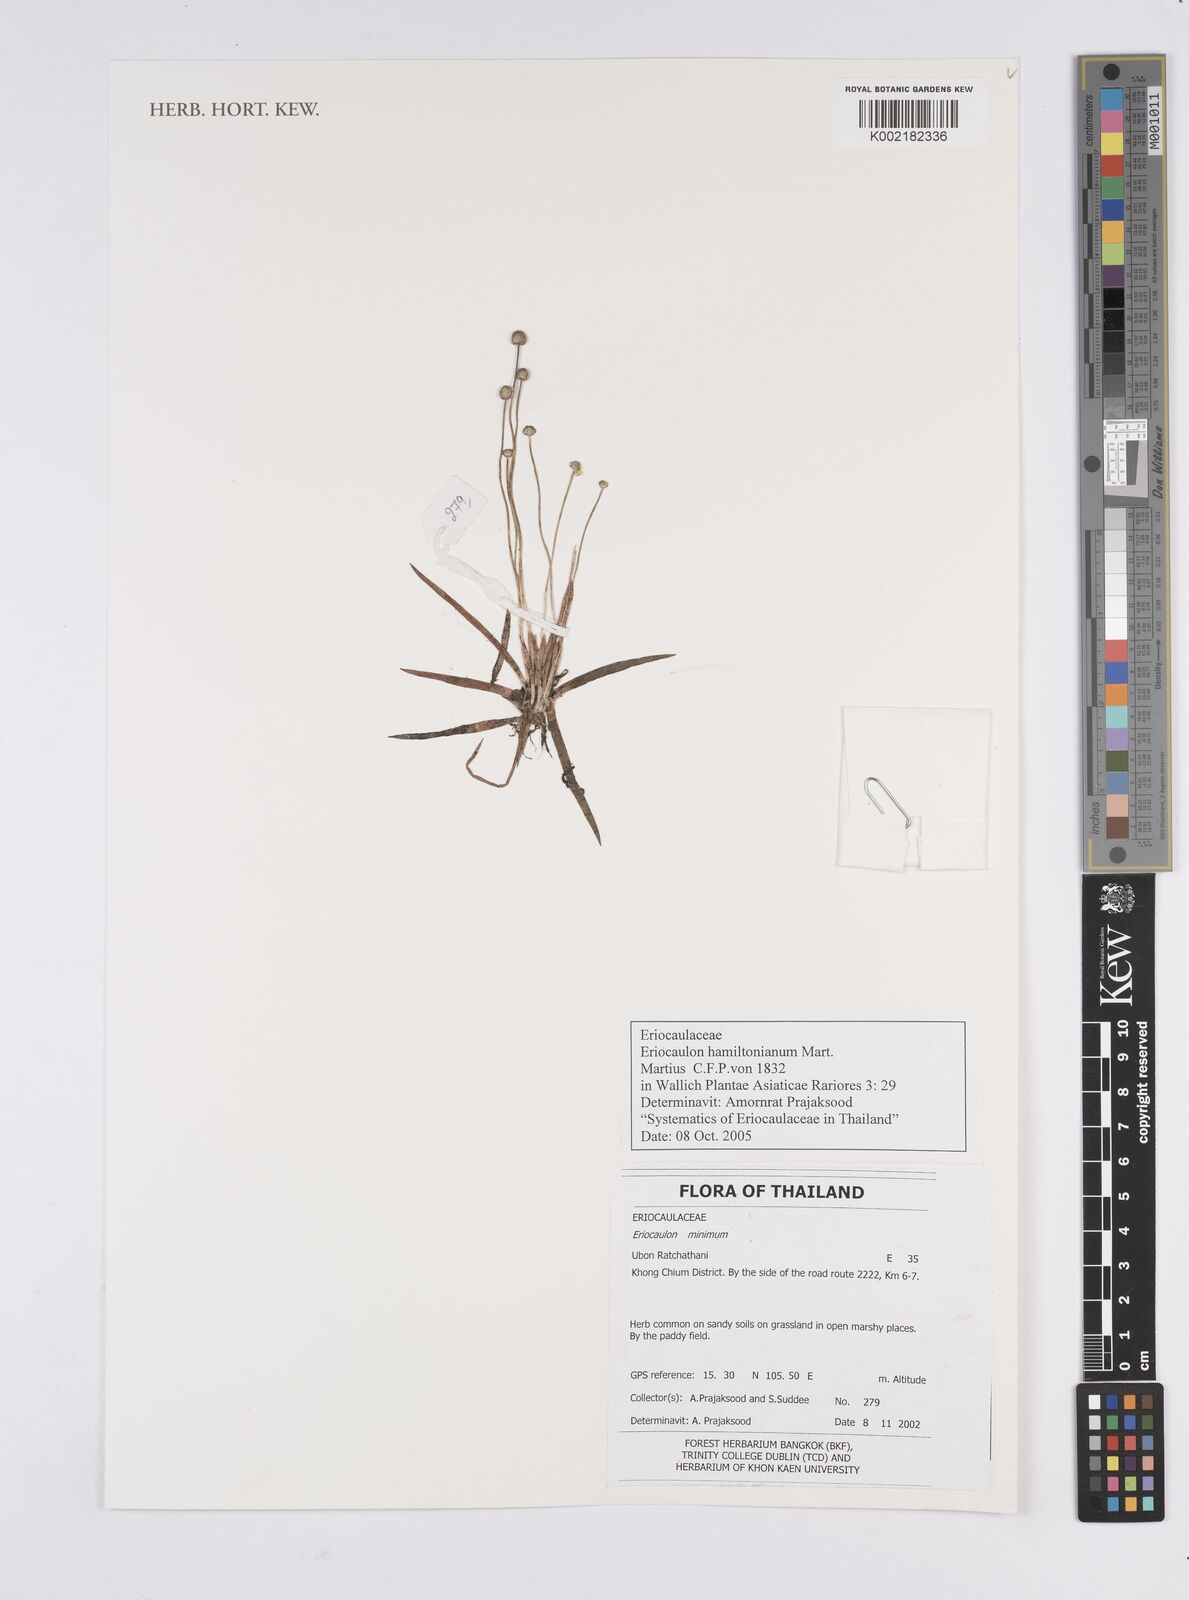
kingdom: Plantae
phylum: Tracheophyta
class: Liliopsida
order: Poales
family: Eriocaulaceae
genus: Eriocaulon
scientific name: Eriocaulon hamiltonianum
